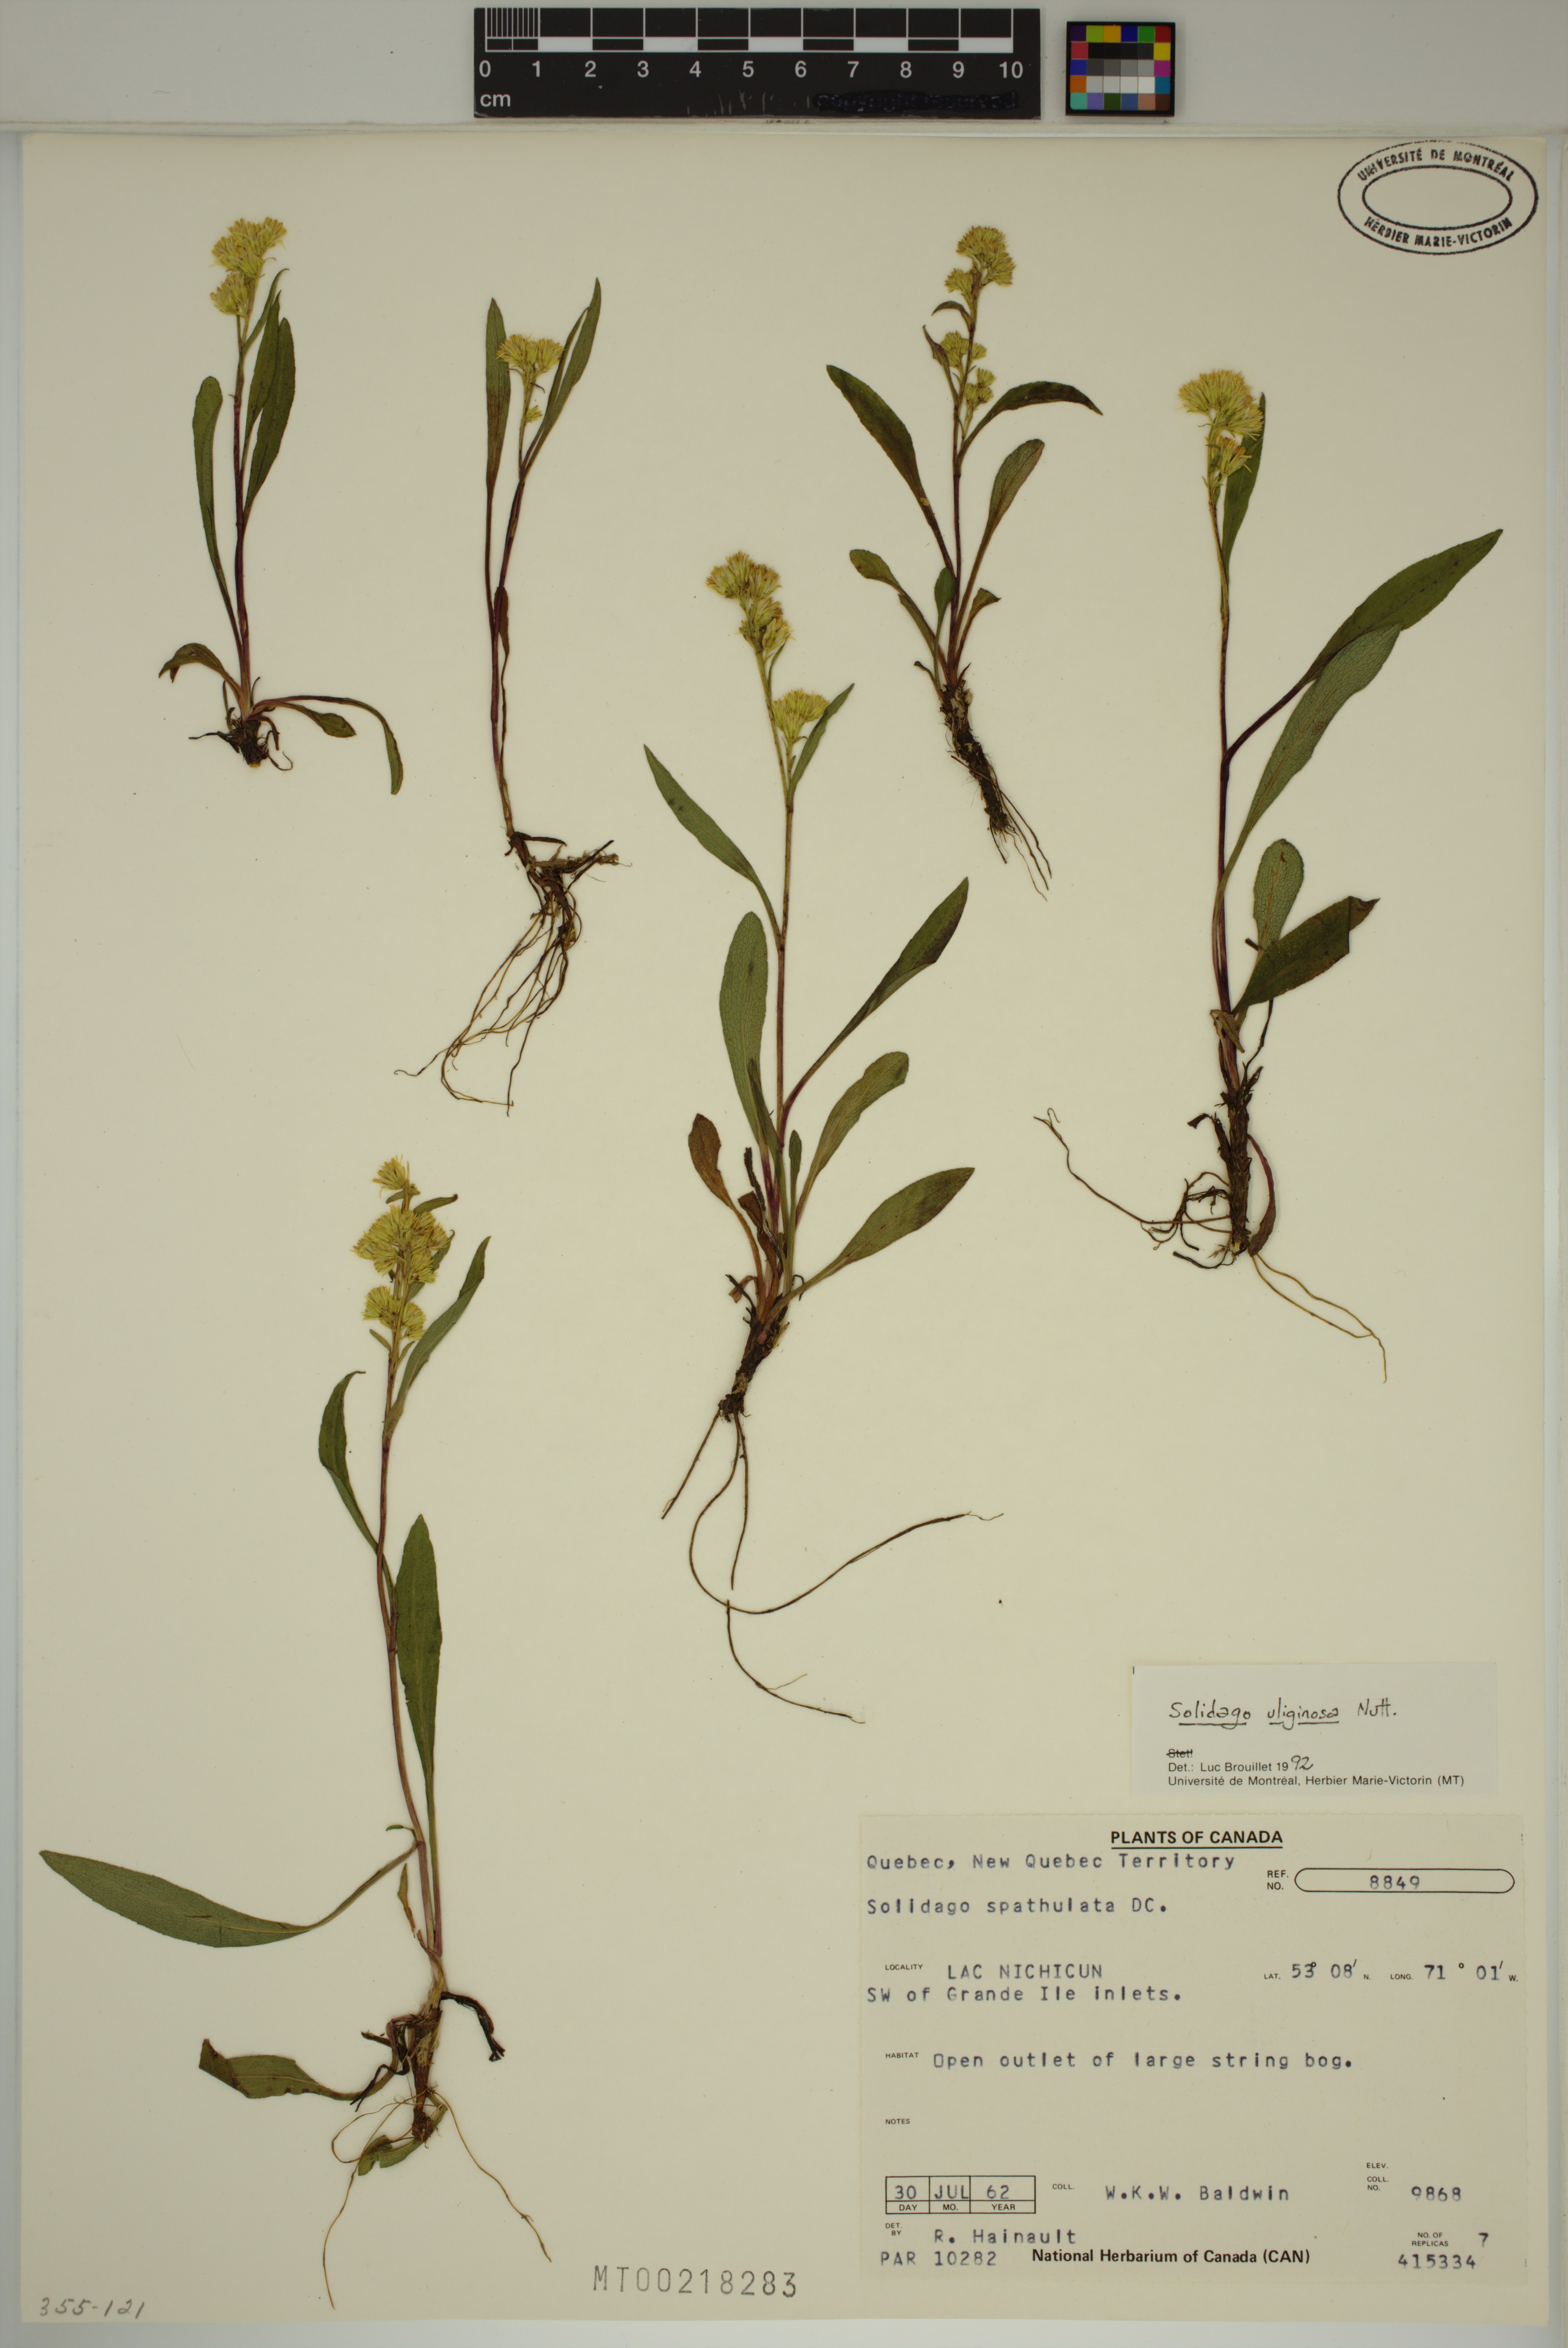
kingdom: Plantae
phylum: Tracheophyta
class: Magnoliopsida
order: Asterales
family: Asteraceae
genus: Solidago
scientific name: Solidago uliginosa
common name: Bog goldenrod
